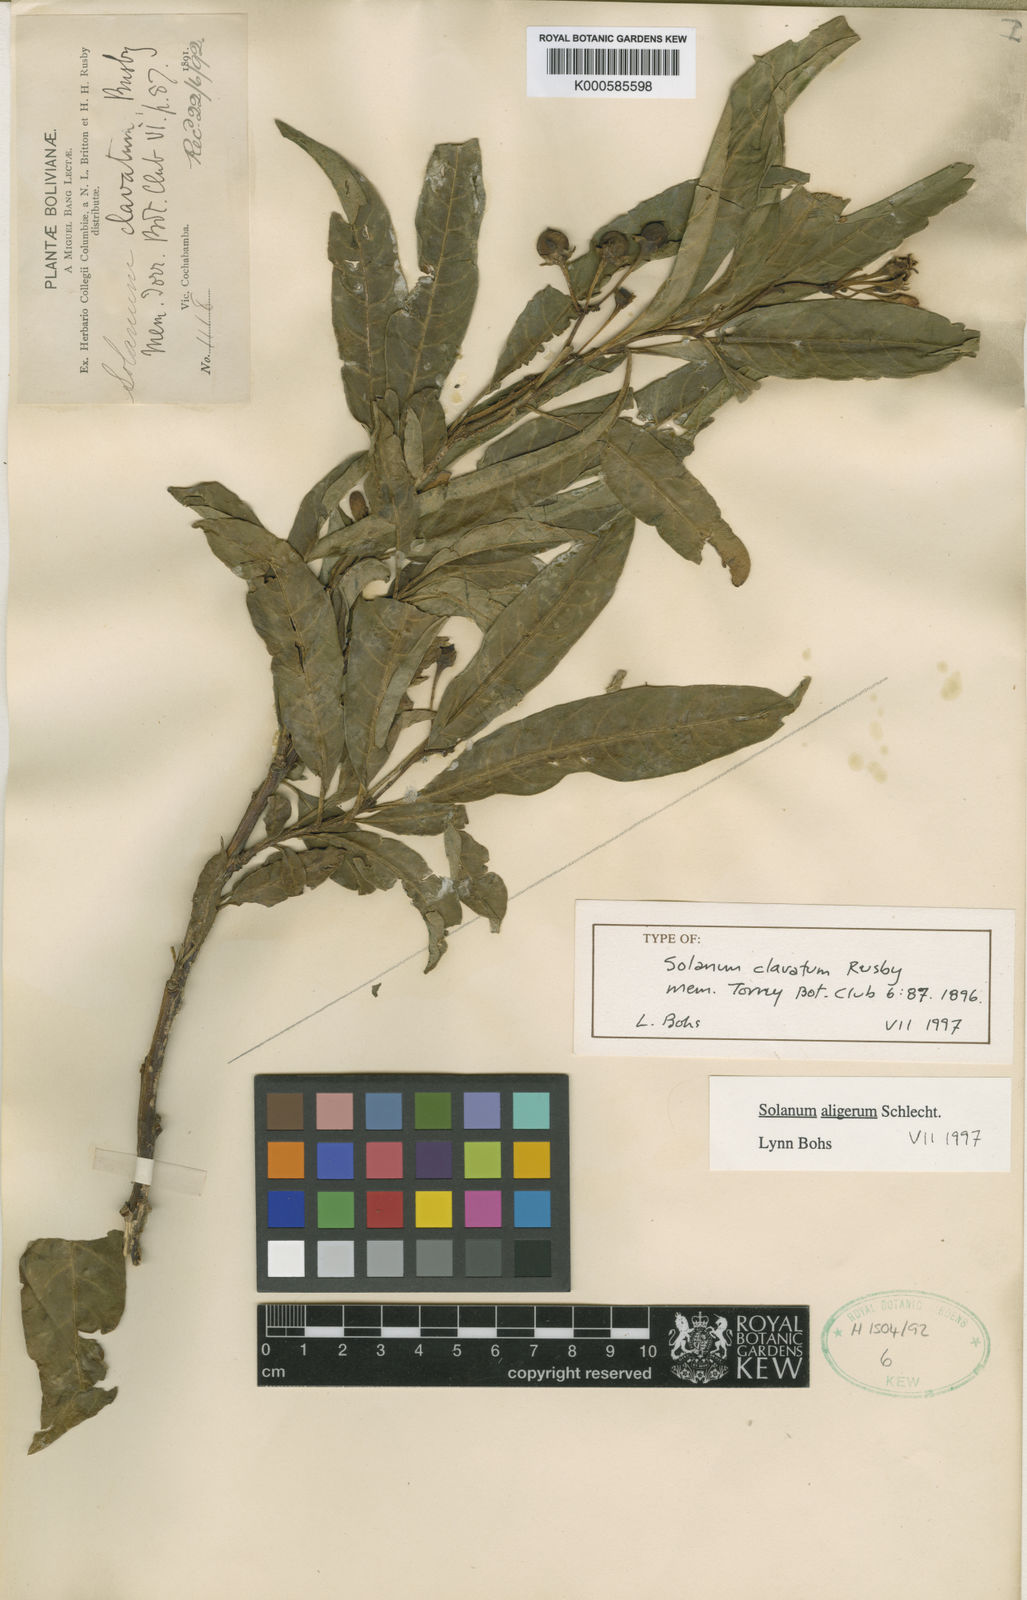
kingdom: Plantae
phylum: Tracheophyta
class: Magnoliopsida
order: Solanales
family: Solanaceae
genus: Solanum
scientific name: Solanum aligerum
